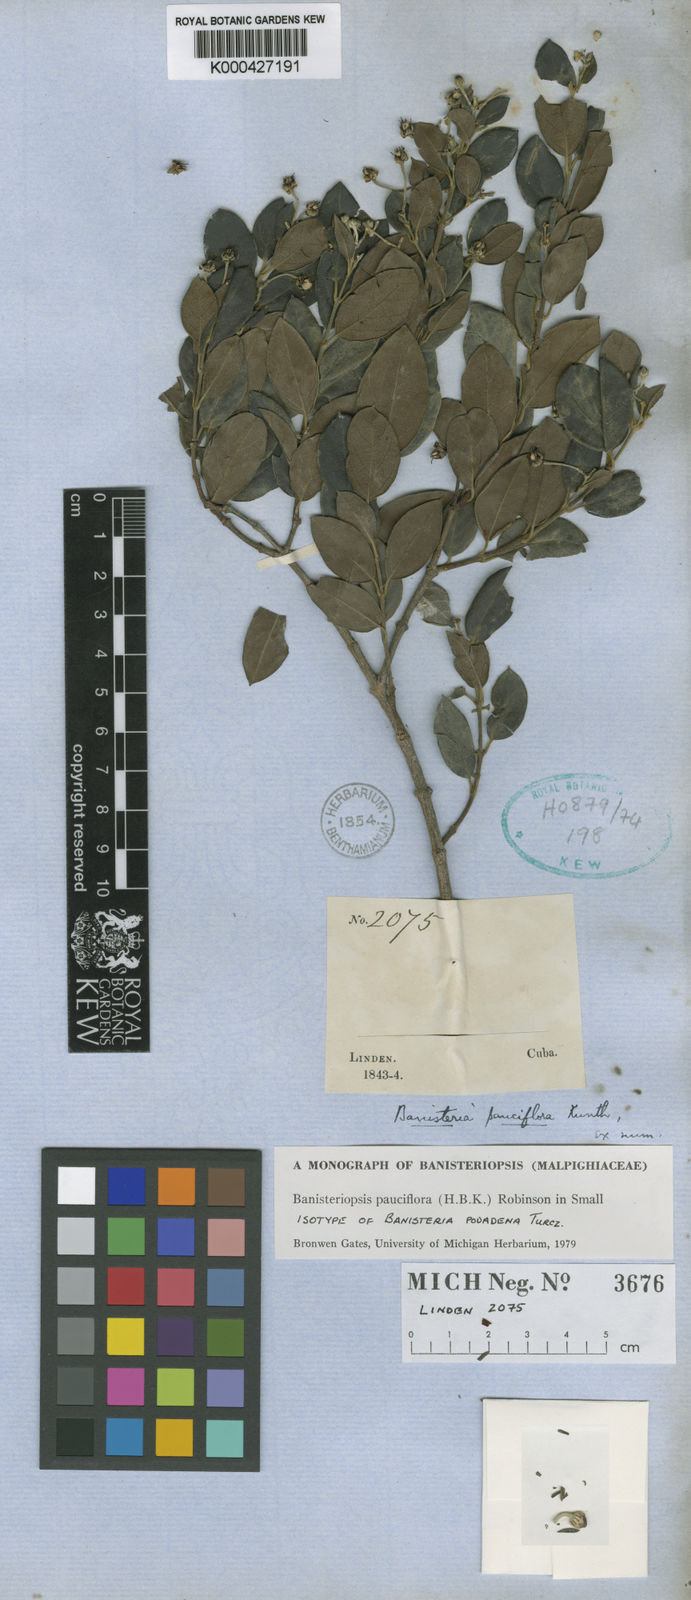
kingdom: Plantae
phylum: Tracheophyta
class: Magnoliopsida
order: Malpighiales
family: Malpighiaceae
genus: Banisteriopsis
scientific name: Banisteriopsis pauciflora
